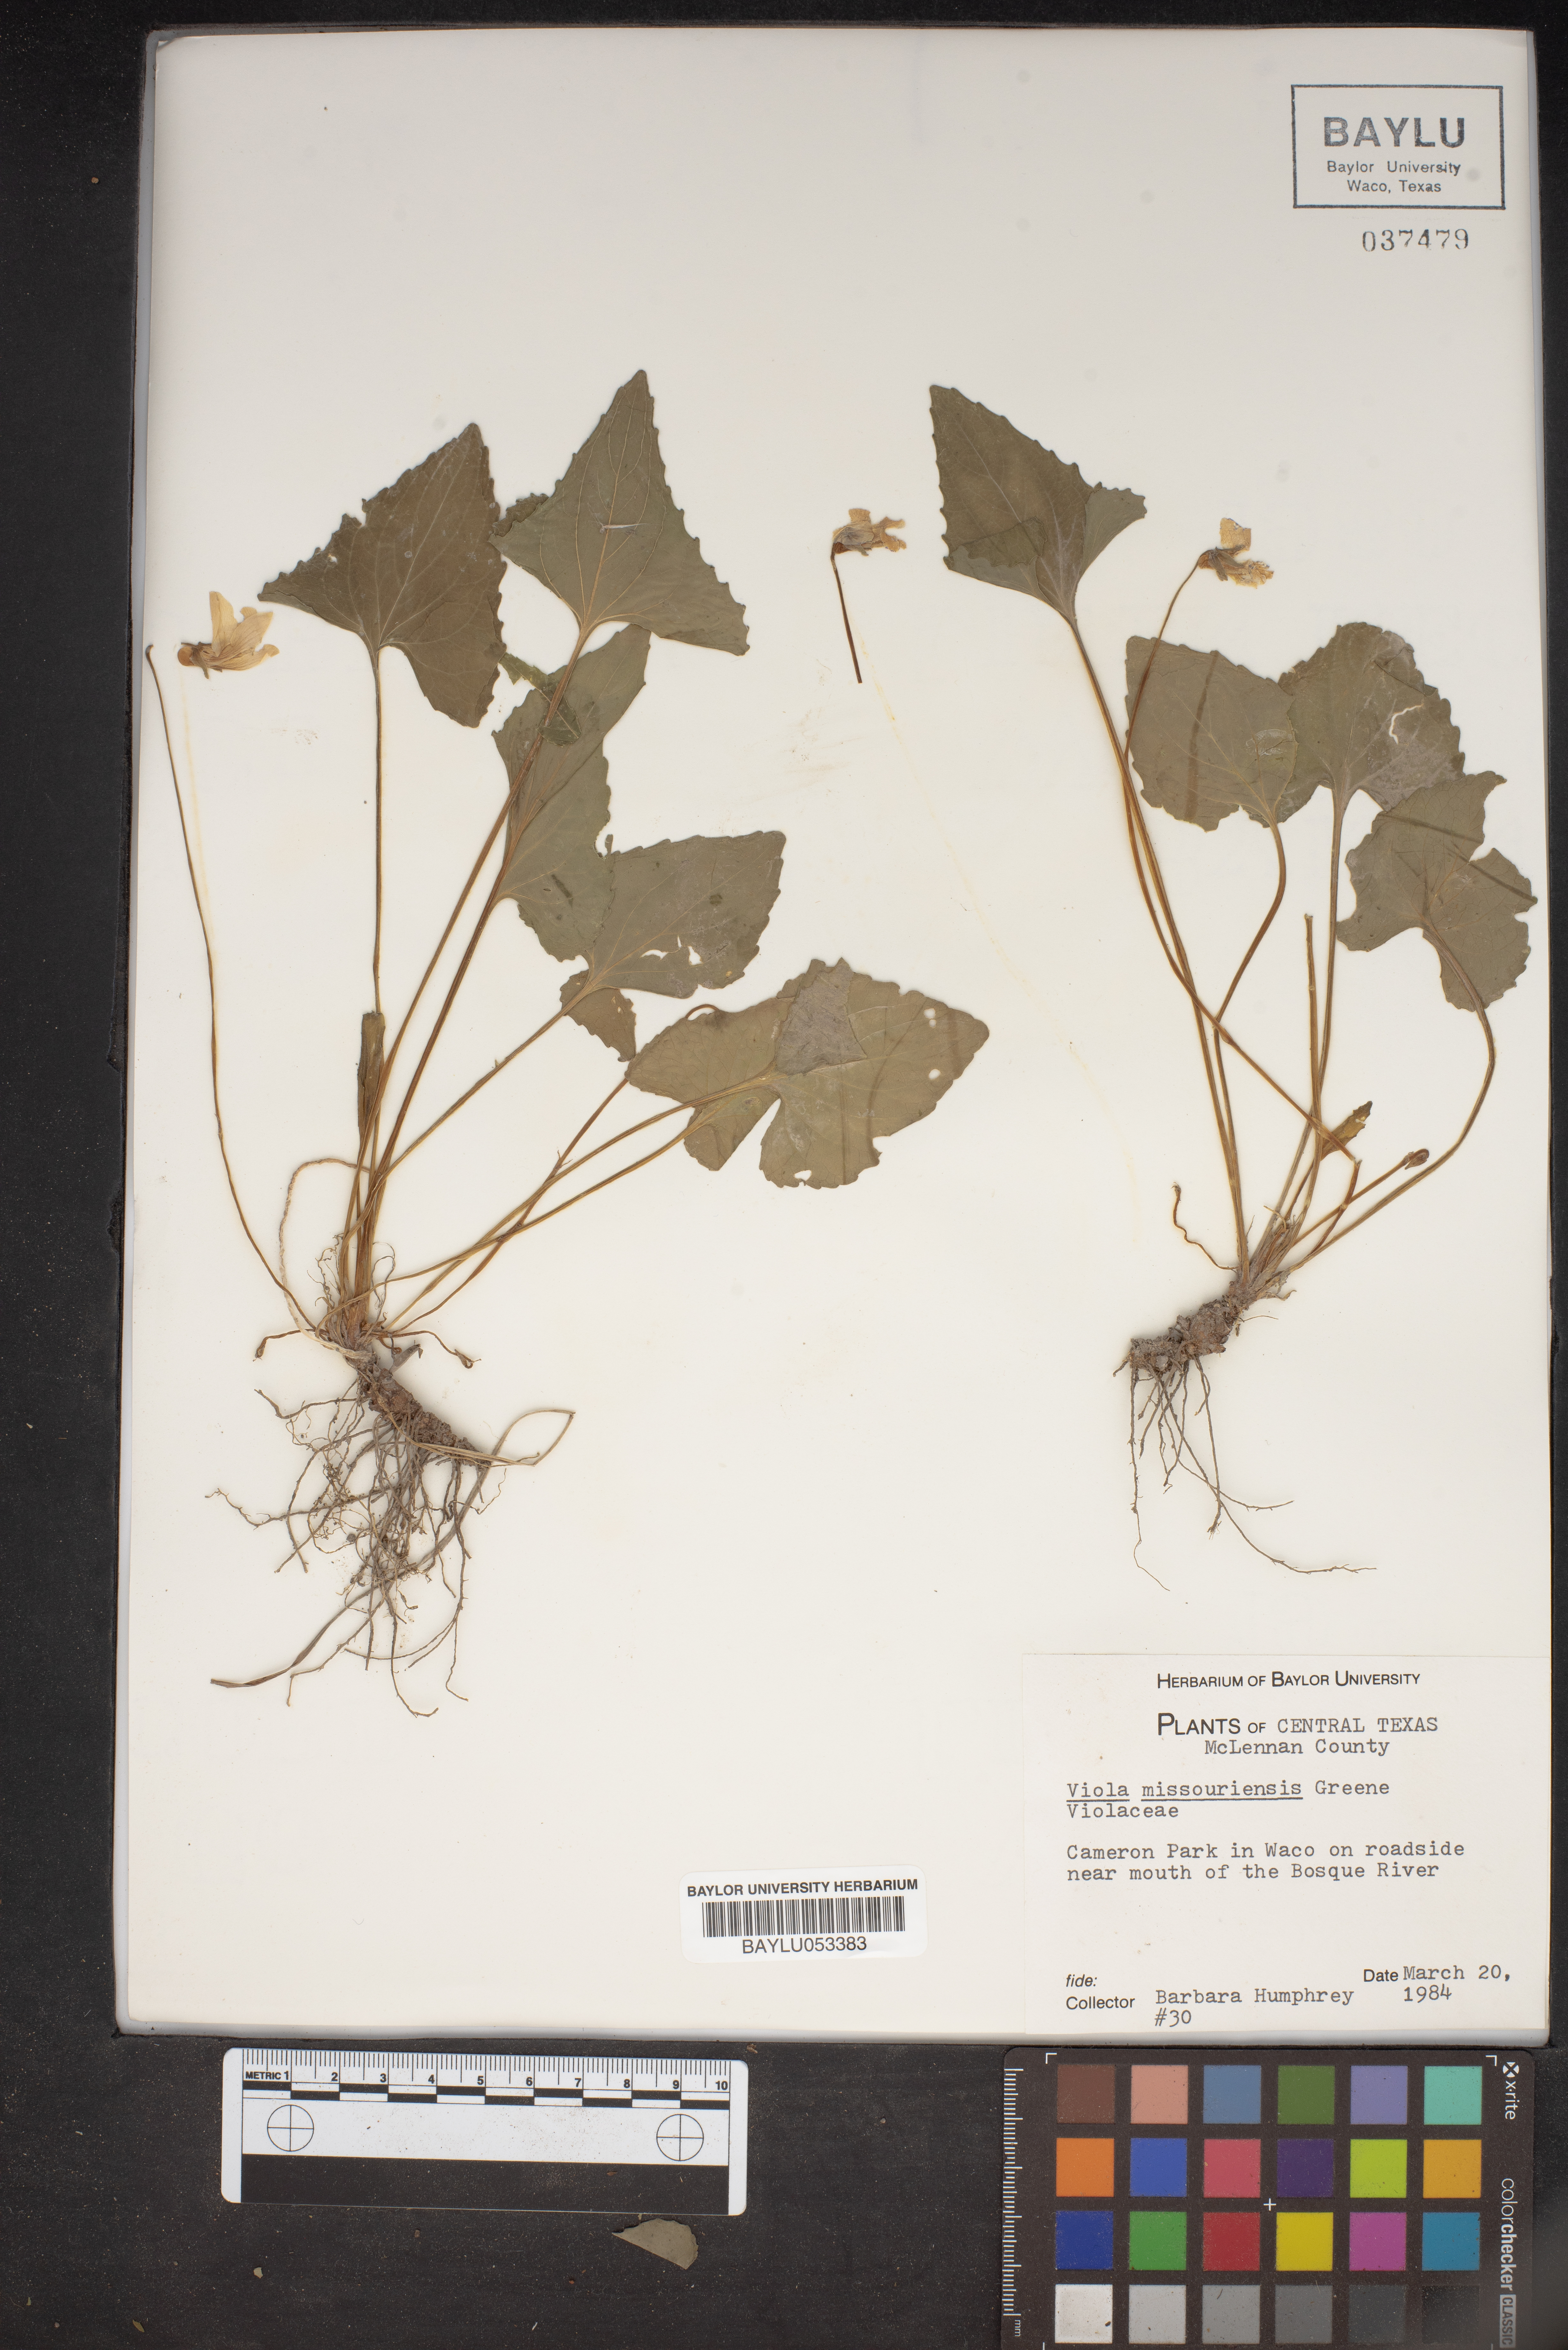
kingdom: Plantae
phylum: Tracheophyta
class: Magnoliopsida
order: Malpighiales
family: Violaceae
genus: Viola
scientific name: Viola missouriensis
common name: Missouri violet
